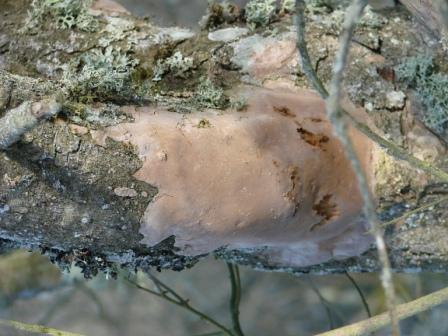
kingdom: Fungi
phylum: Basidiomycota
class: Agaricomycetes
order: Hymenochaetales
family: Hymenochaetaceae
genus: Fomitiporia
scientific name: Fomitiporia punctata
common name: pude-ildporesvamp
